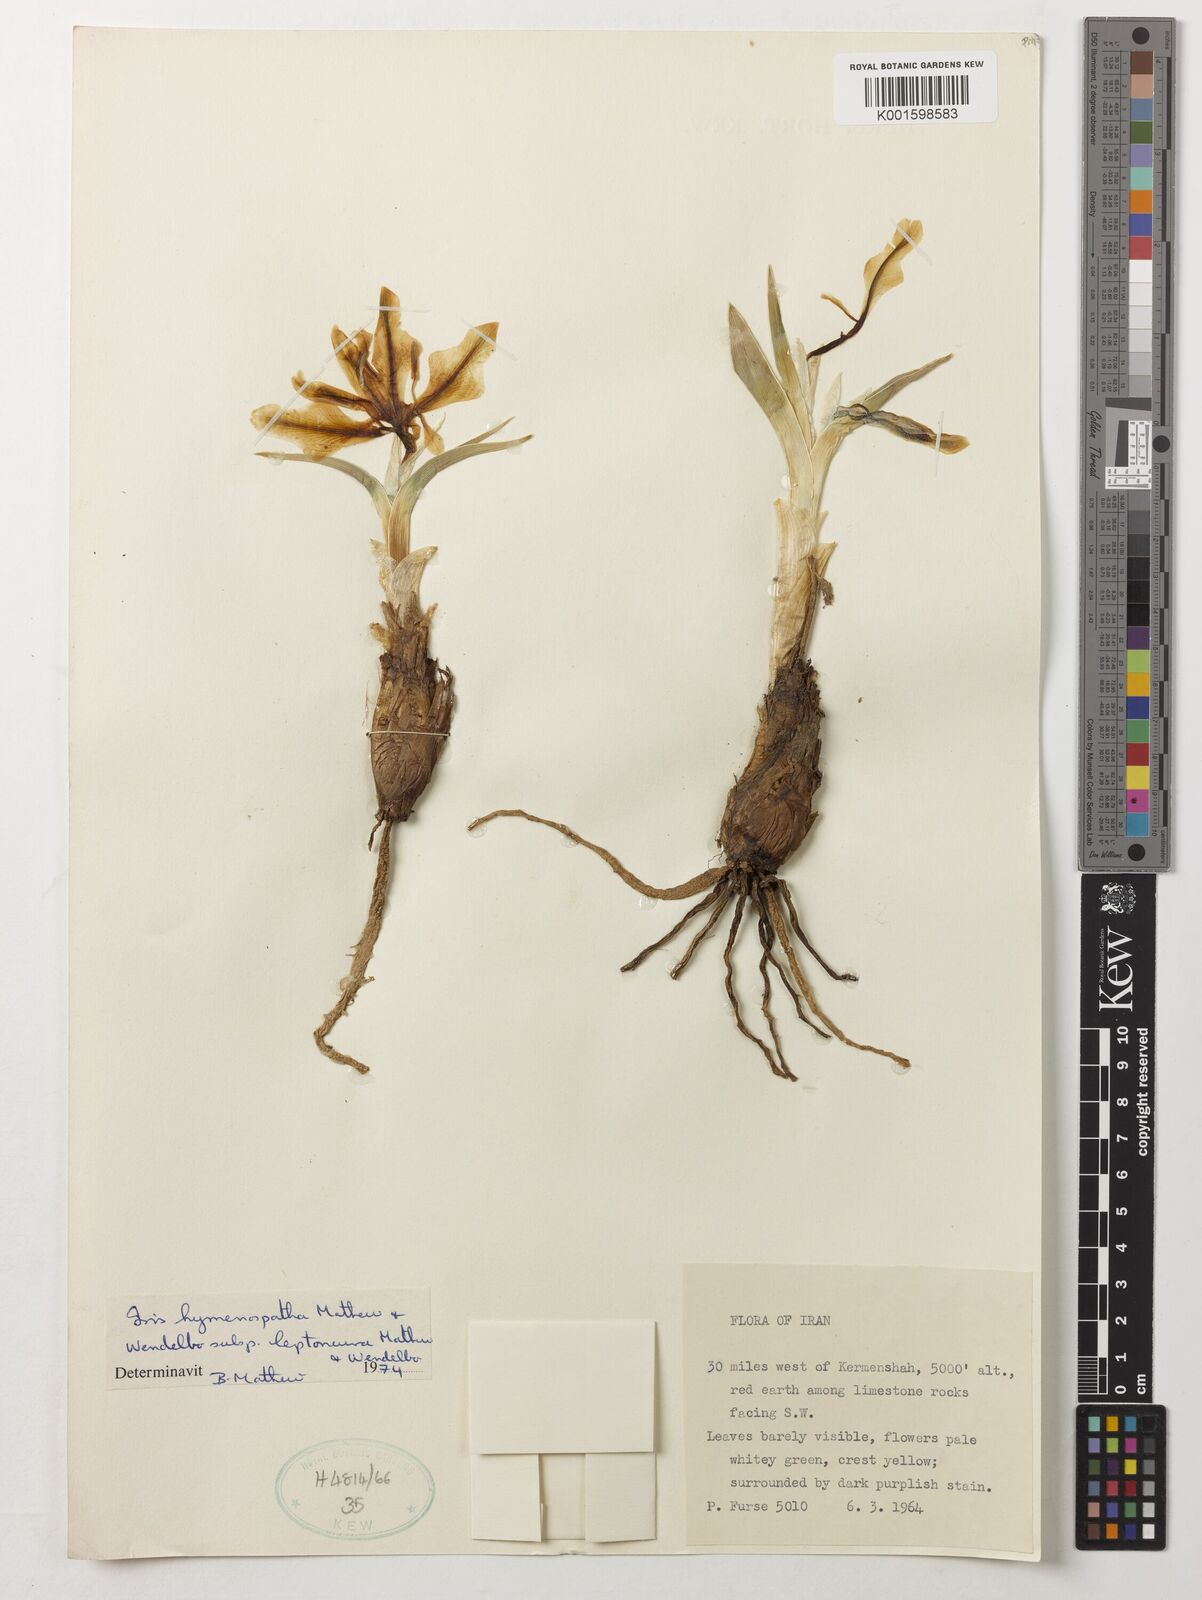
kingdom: Plantae
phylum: Tracheophyta
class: Liliopsida
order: Asparagales
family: Iridaceae
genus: Iris
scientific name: Iris hymenospatha
